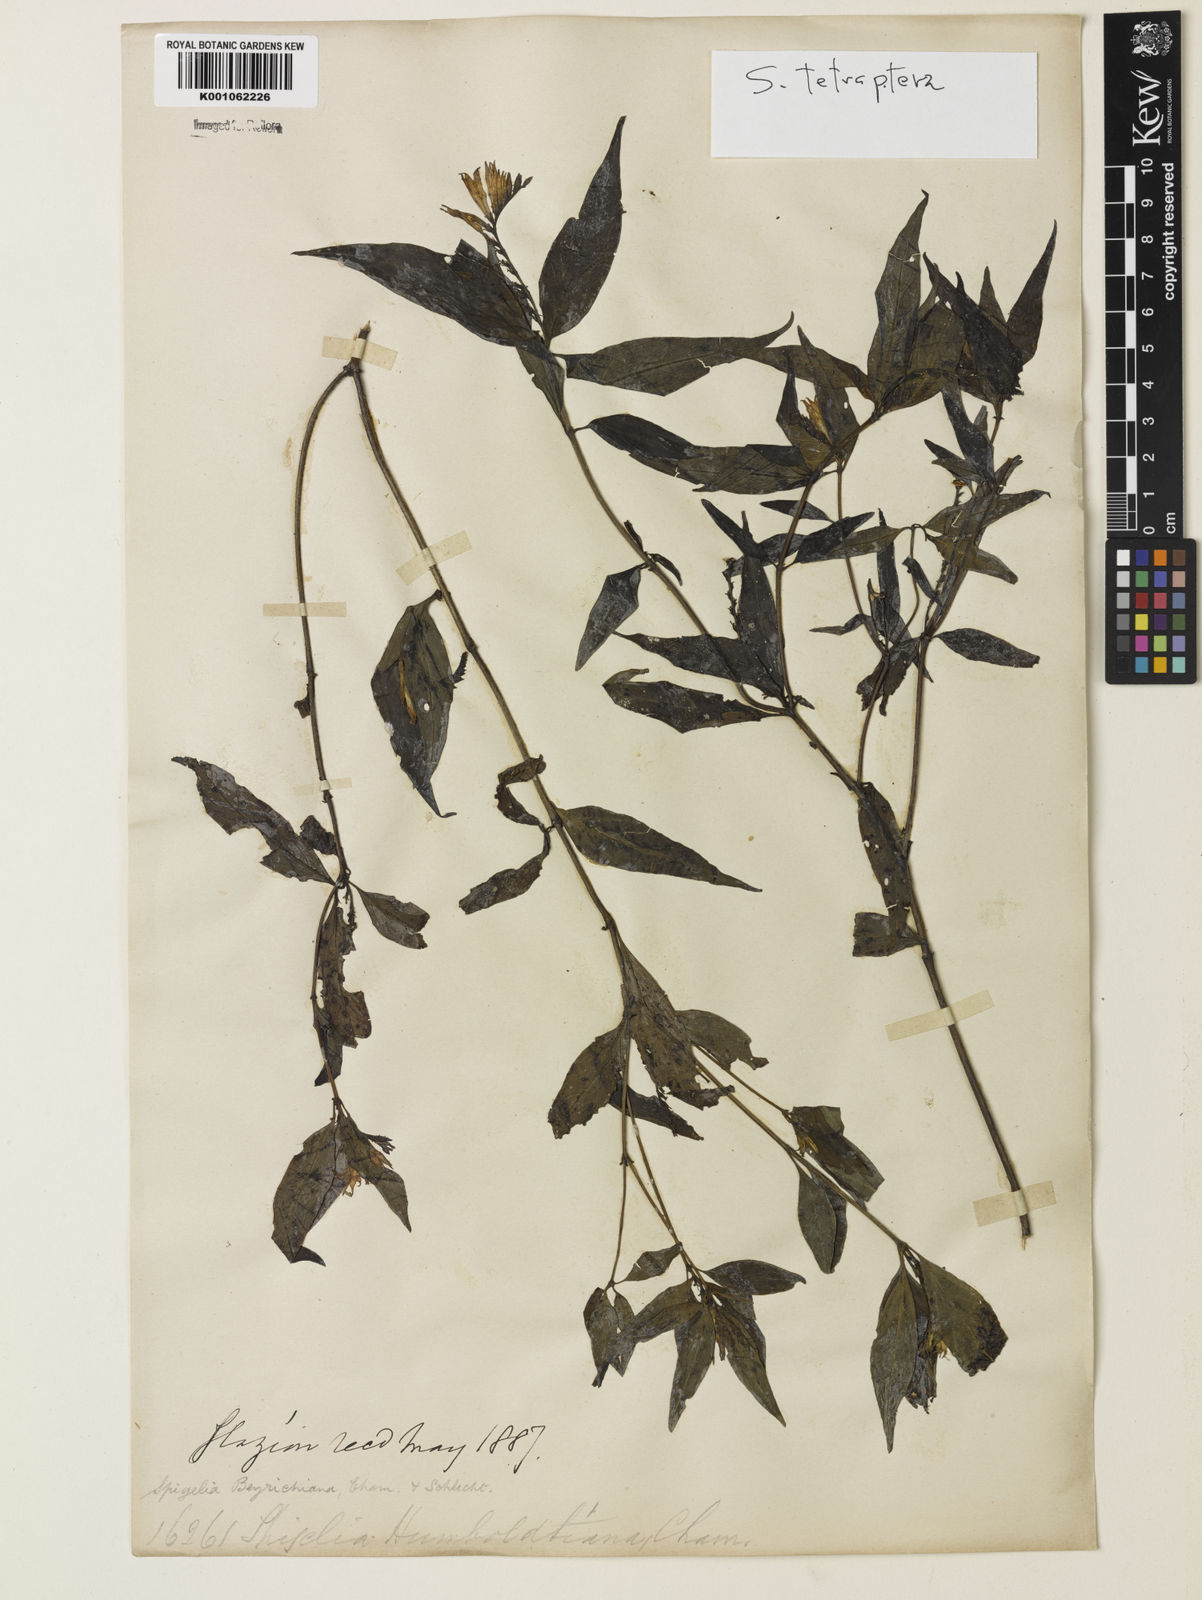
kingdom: Plantae
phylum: Tracheophyta
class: Magnoliopsida
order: Gentianales
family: Loganiaceae
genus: Spigelia
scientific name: Spigelia tetraptera
